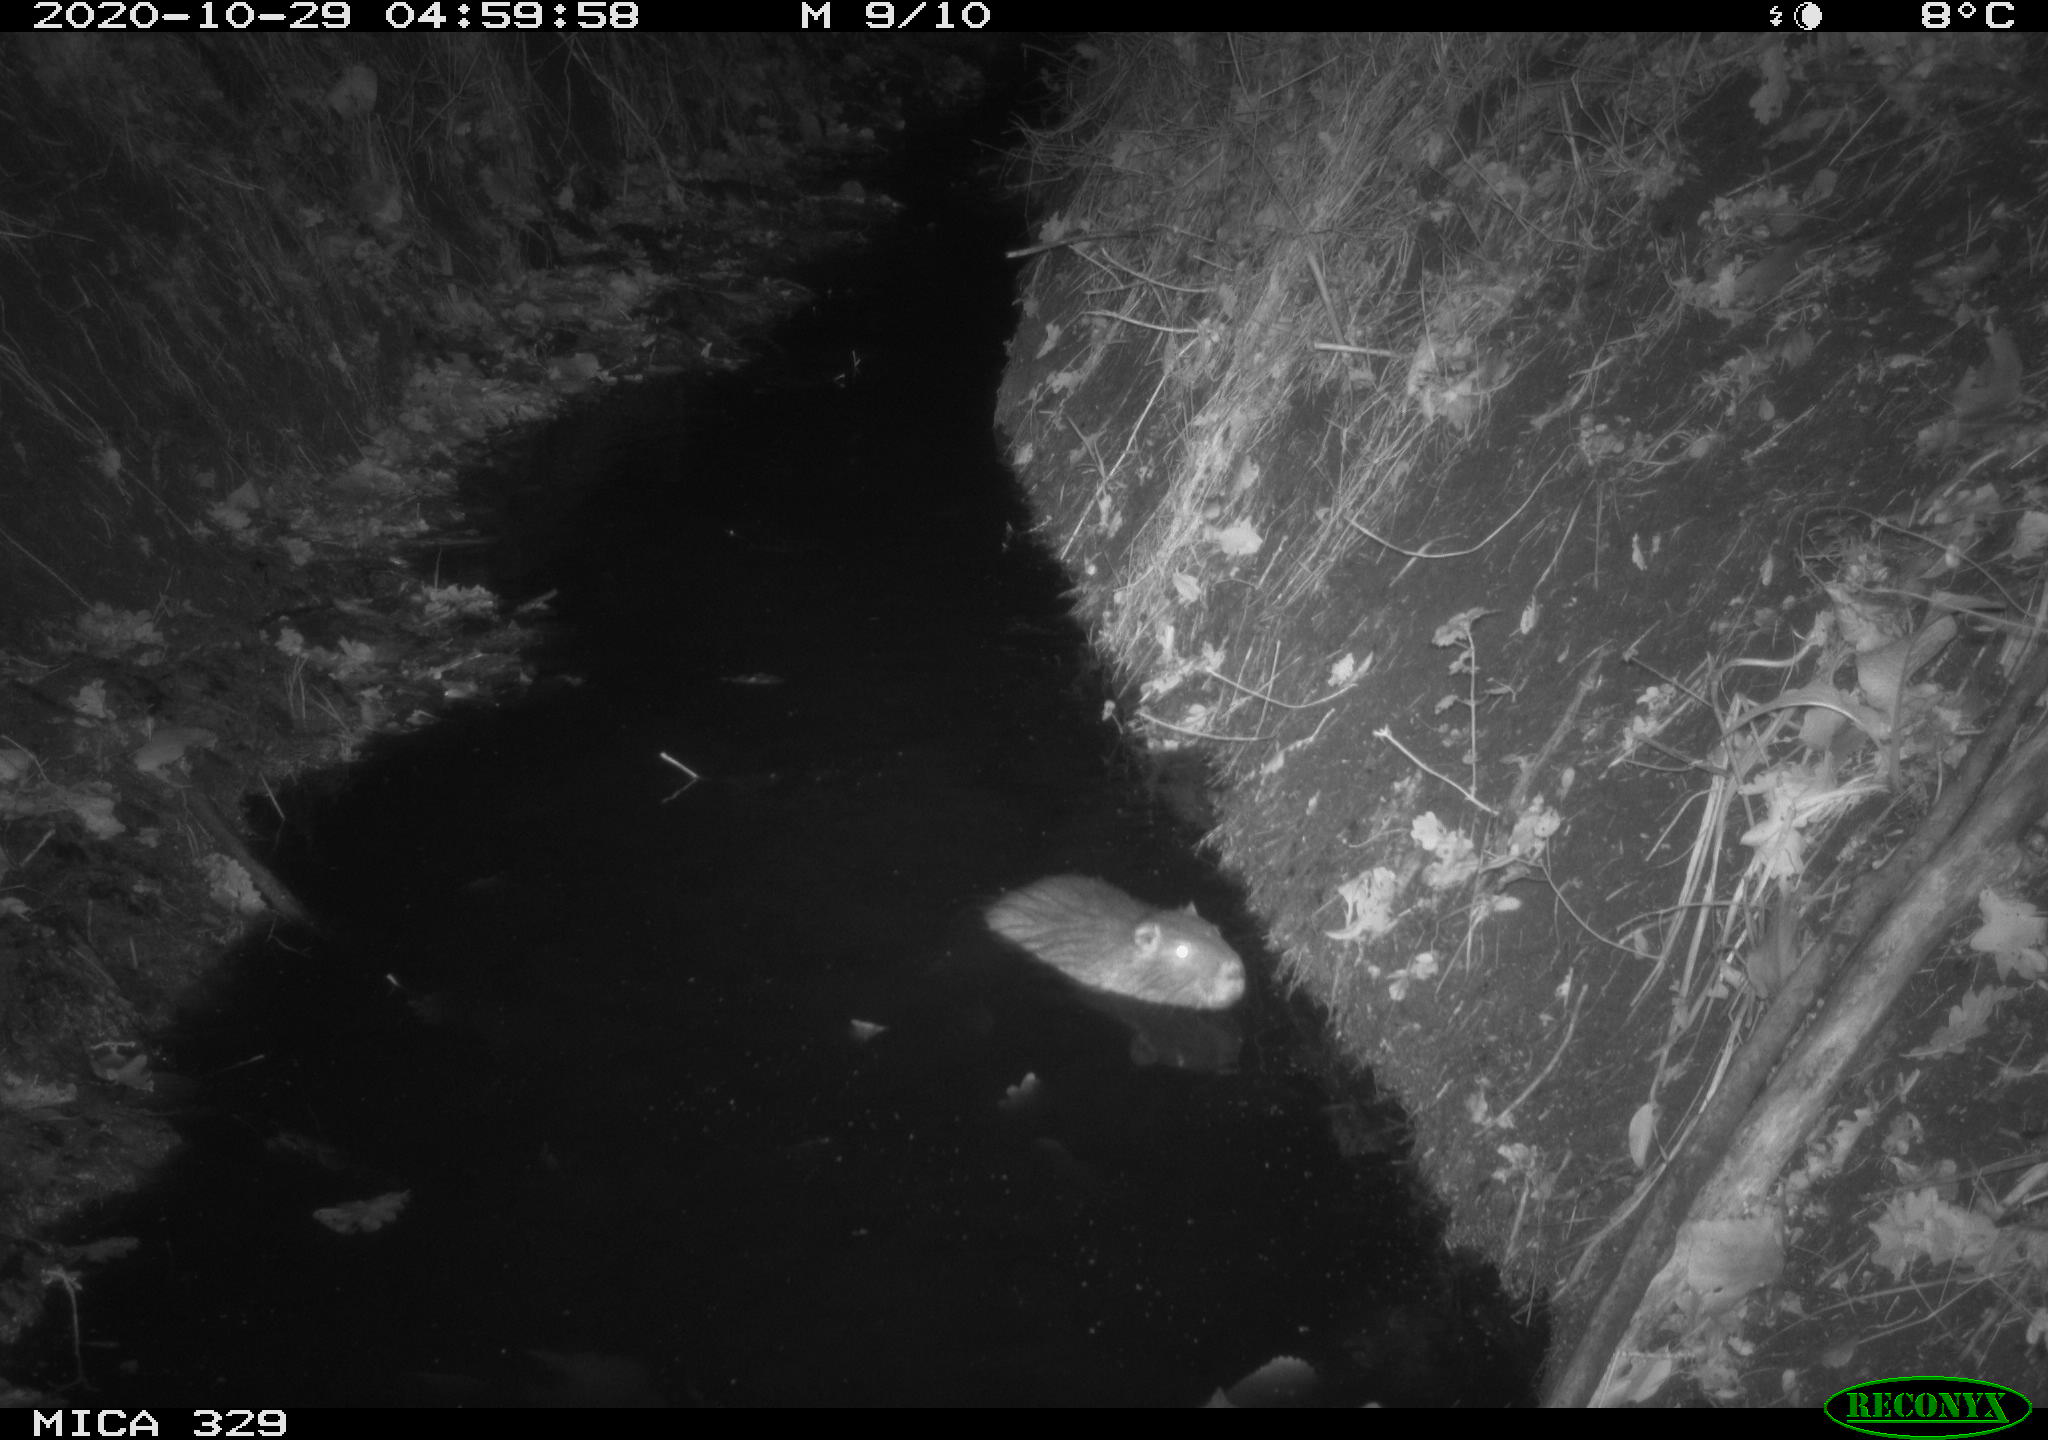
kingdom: Animalia
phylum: Chordata
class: Mammalia
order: Rodentia
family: Myocastoridae
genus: Myocastor
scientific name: Myocastor coypus
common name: Coypu
